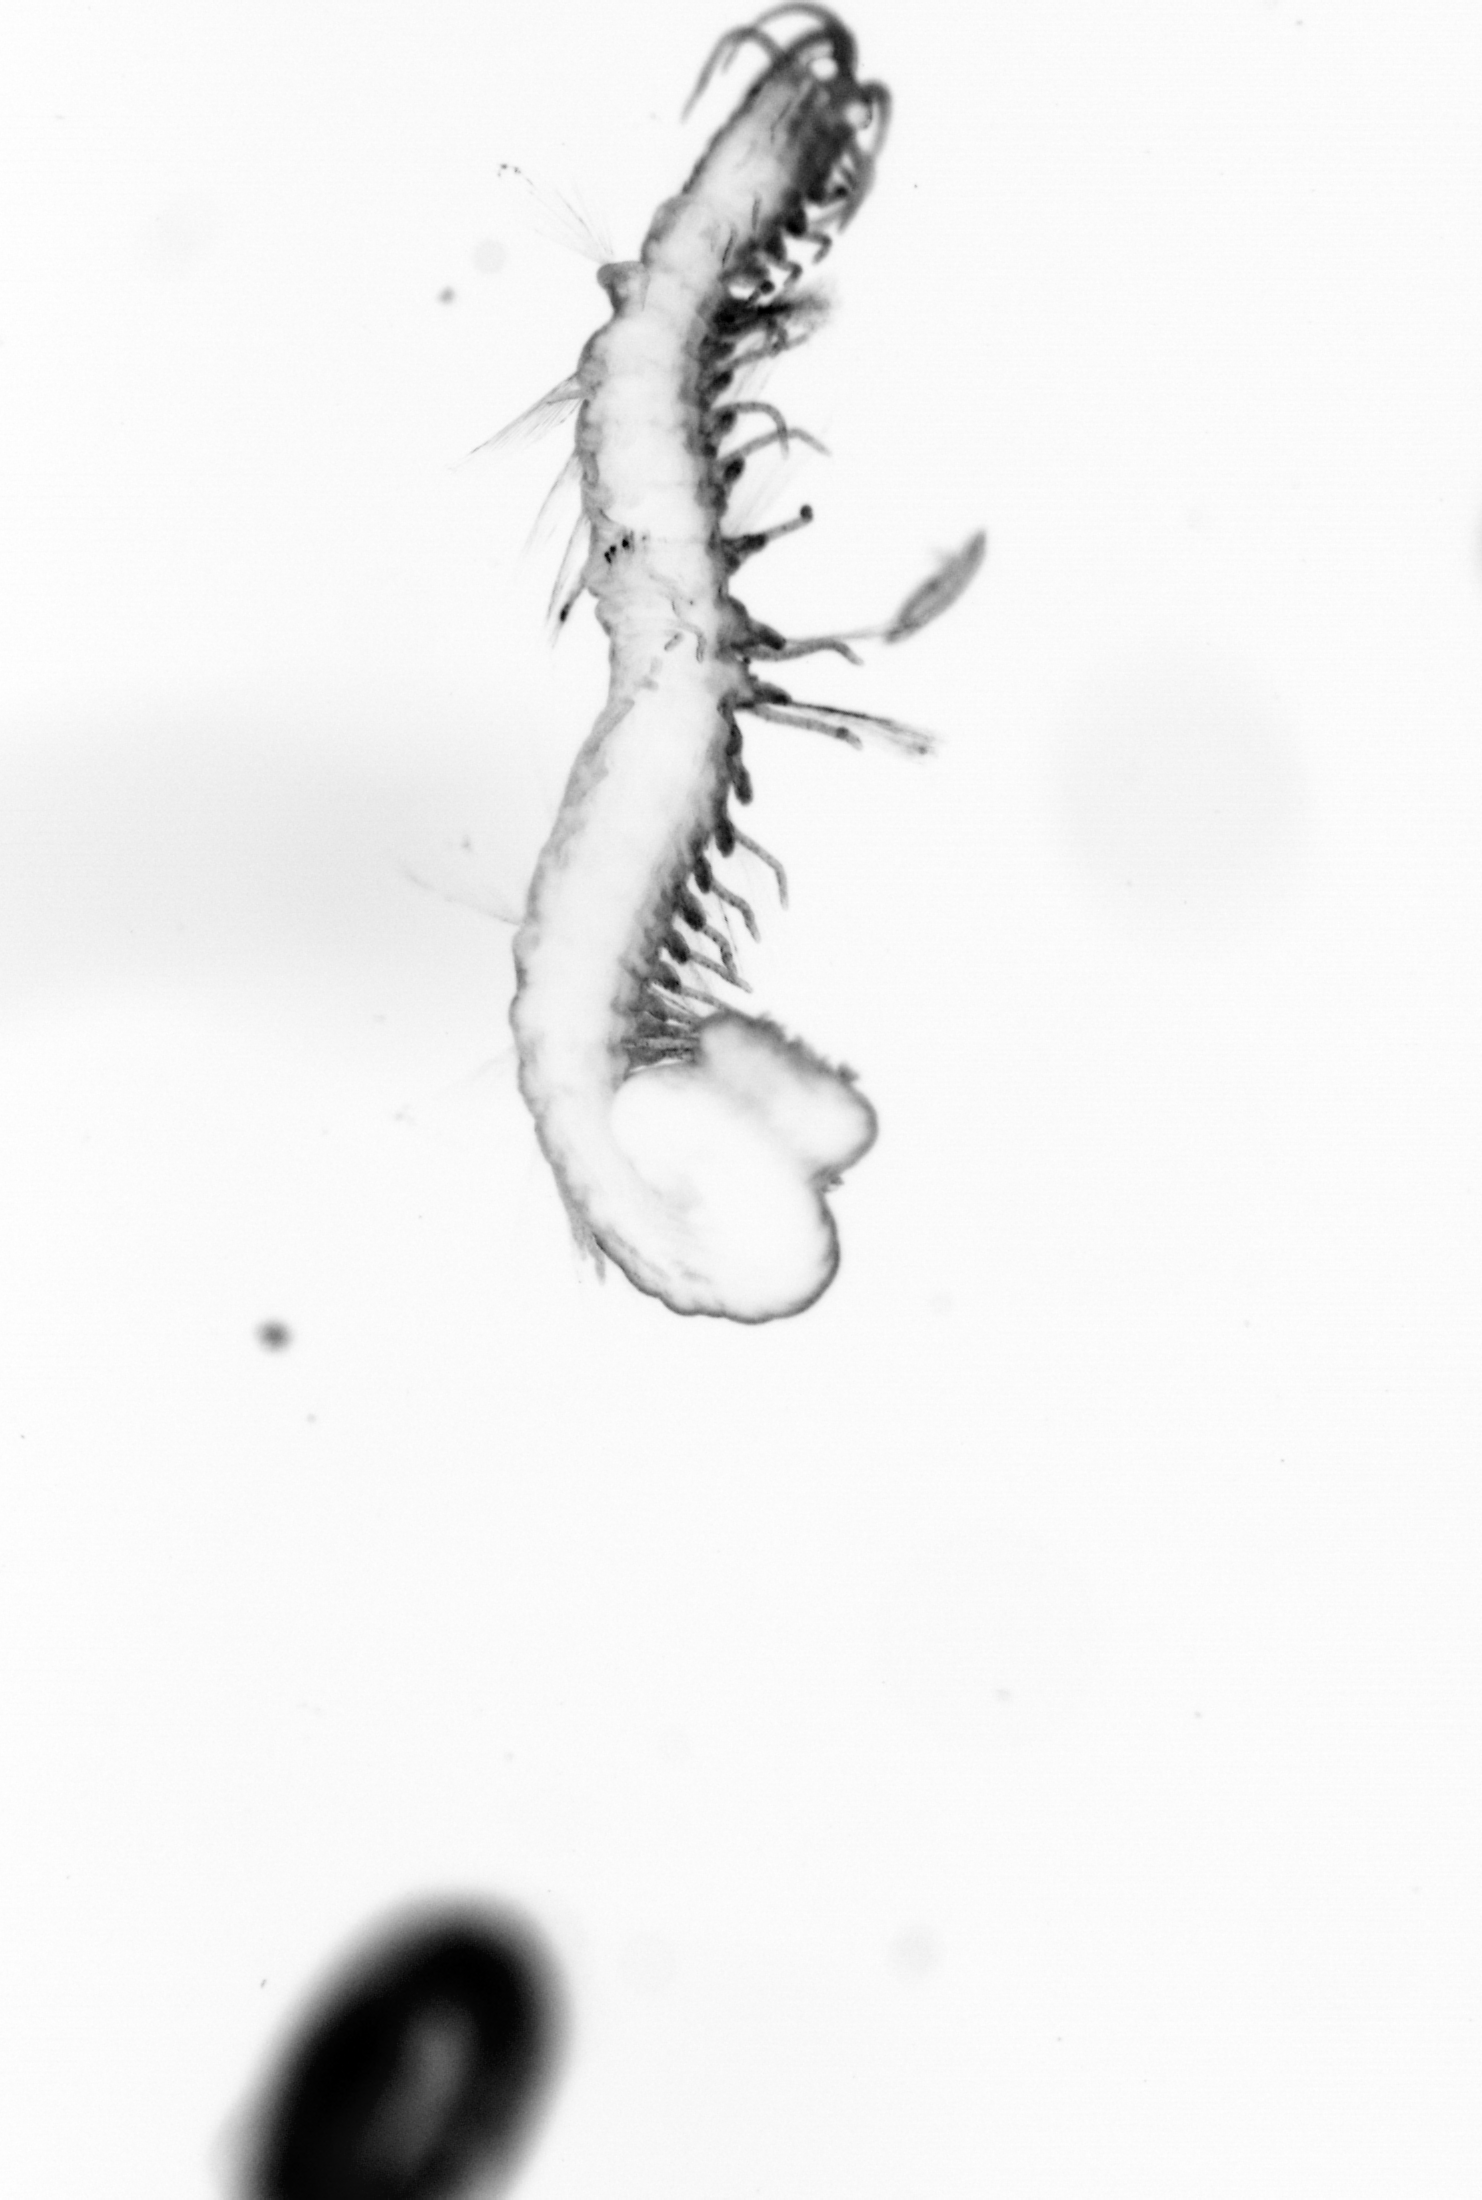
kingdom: Animalia
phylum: Annelida
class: Polychaeta
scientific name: Polychaeta
